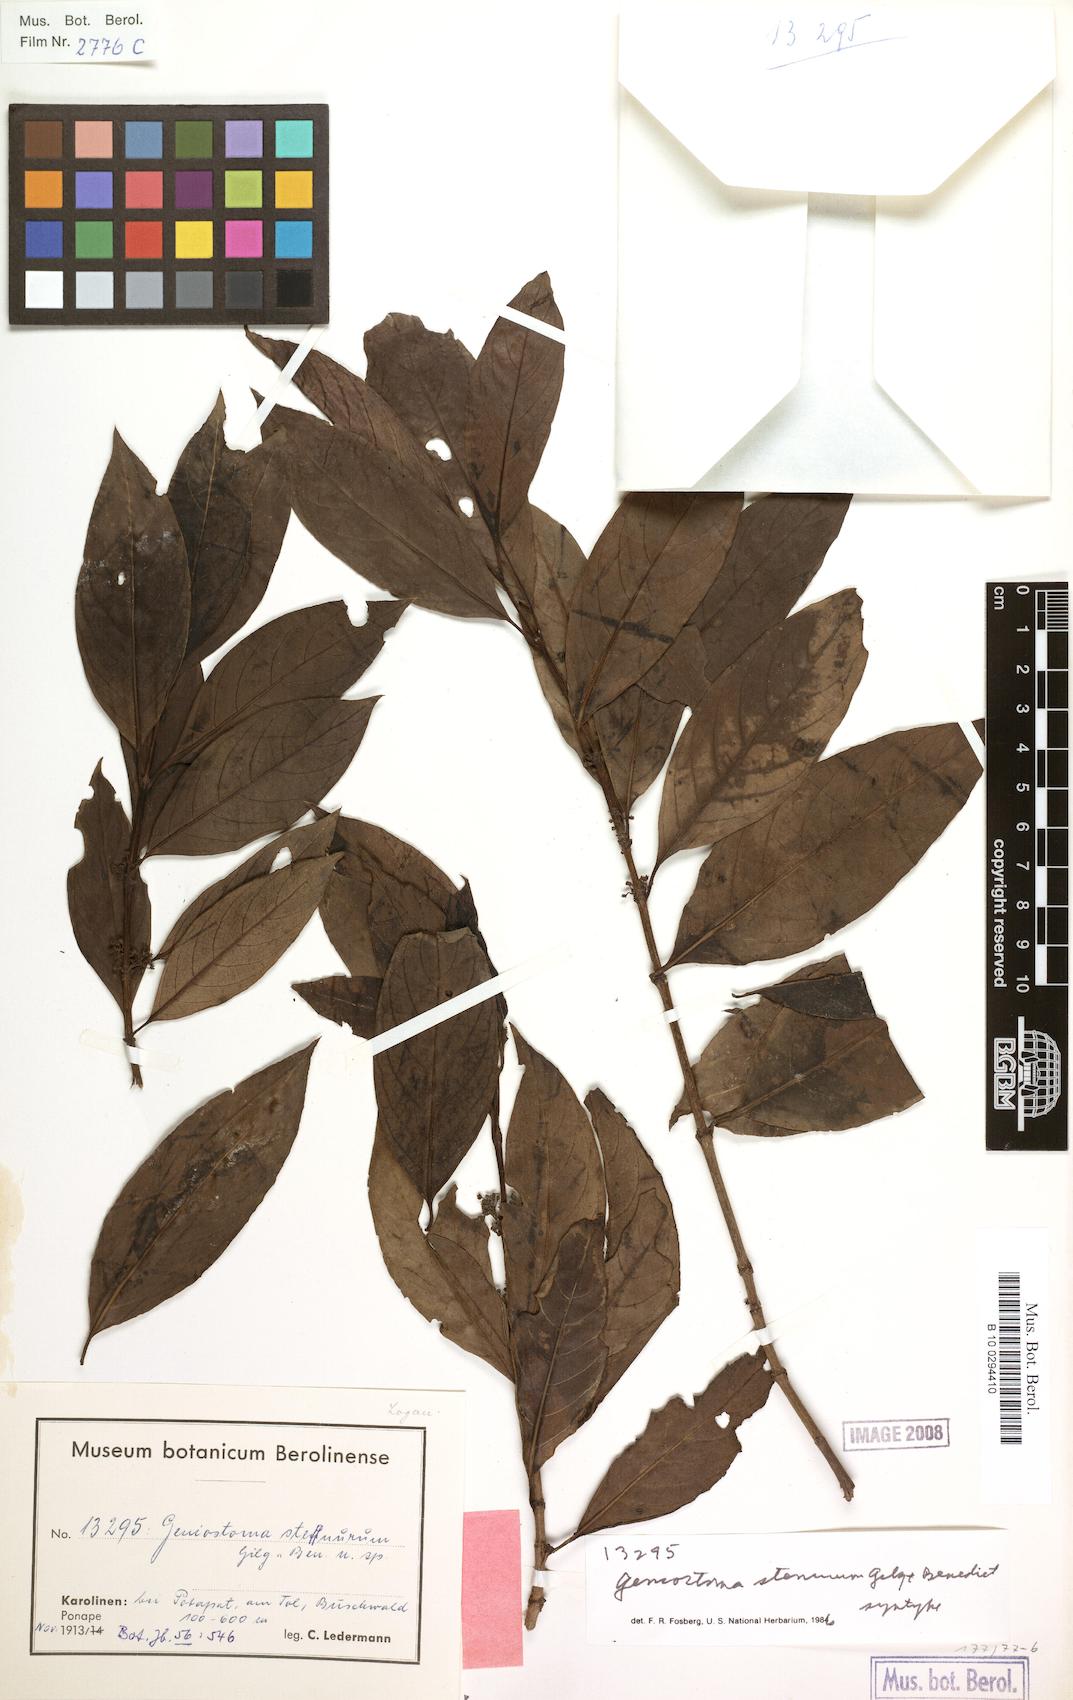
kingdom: Plantae
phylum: Tracheophyta
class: Magnoliopsida
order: Gentianales
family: Loganiaceae
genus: Geniostoma
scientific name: Geniostoma rupestre
